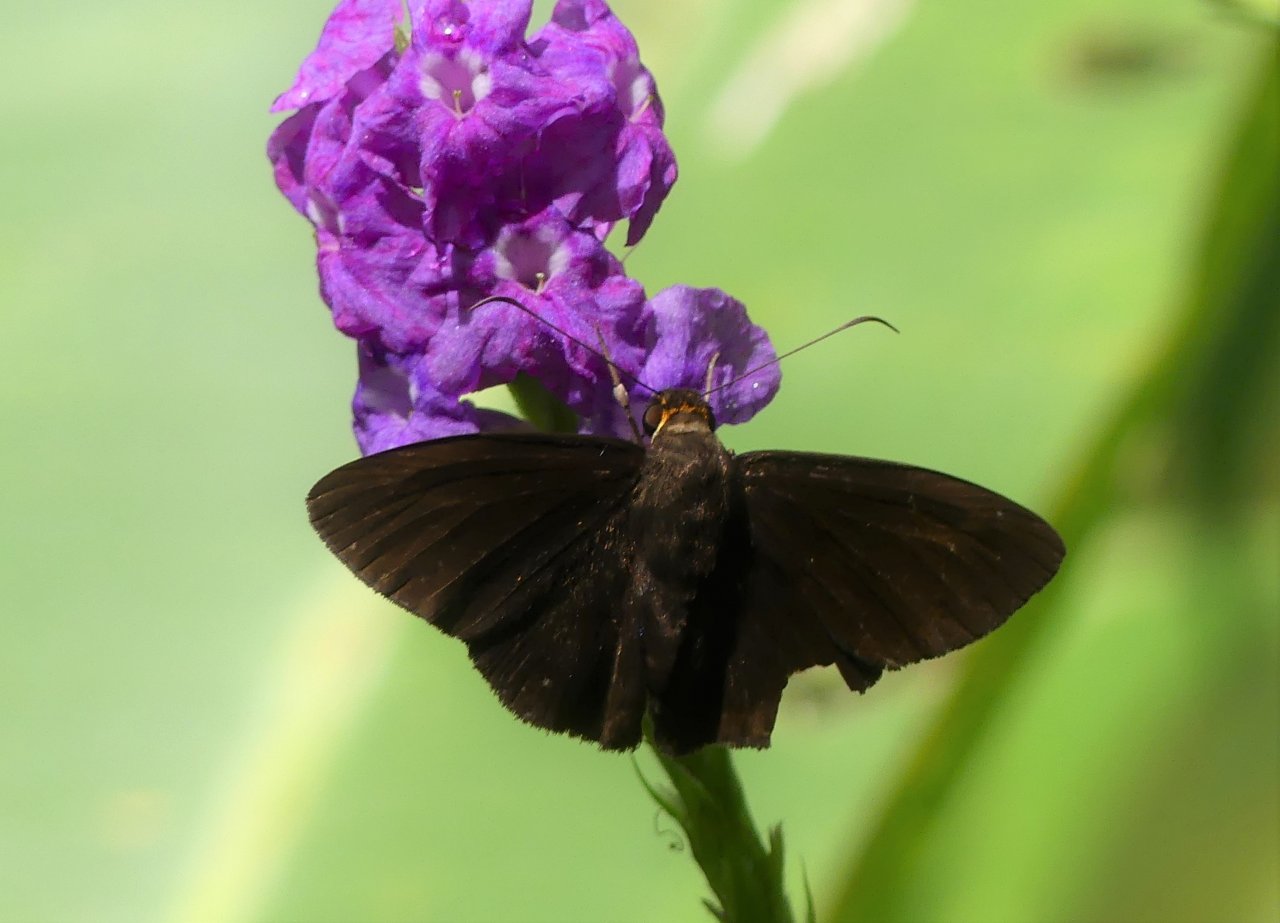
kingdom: Animalia
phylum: Arthropoda
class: Insecta
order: Lepidoptera
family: Hesperiidae
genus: Hyalothyrus
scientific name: Hyalothyrus neleus
